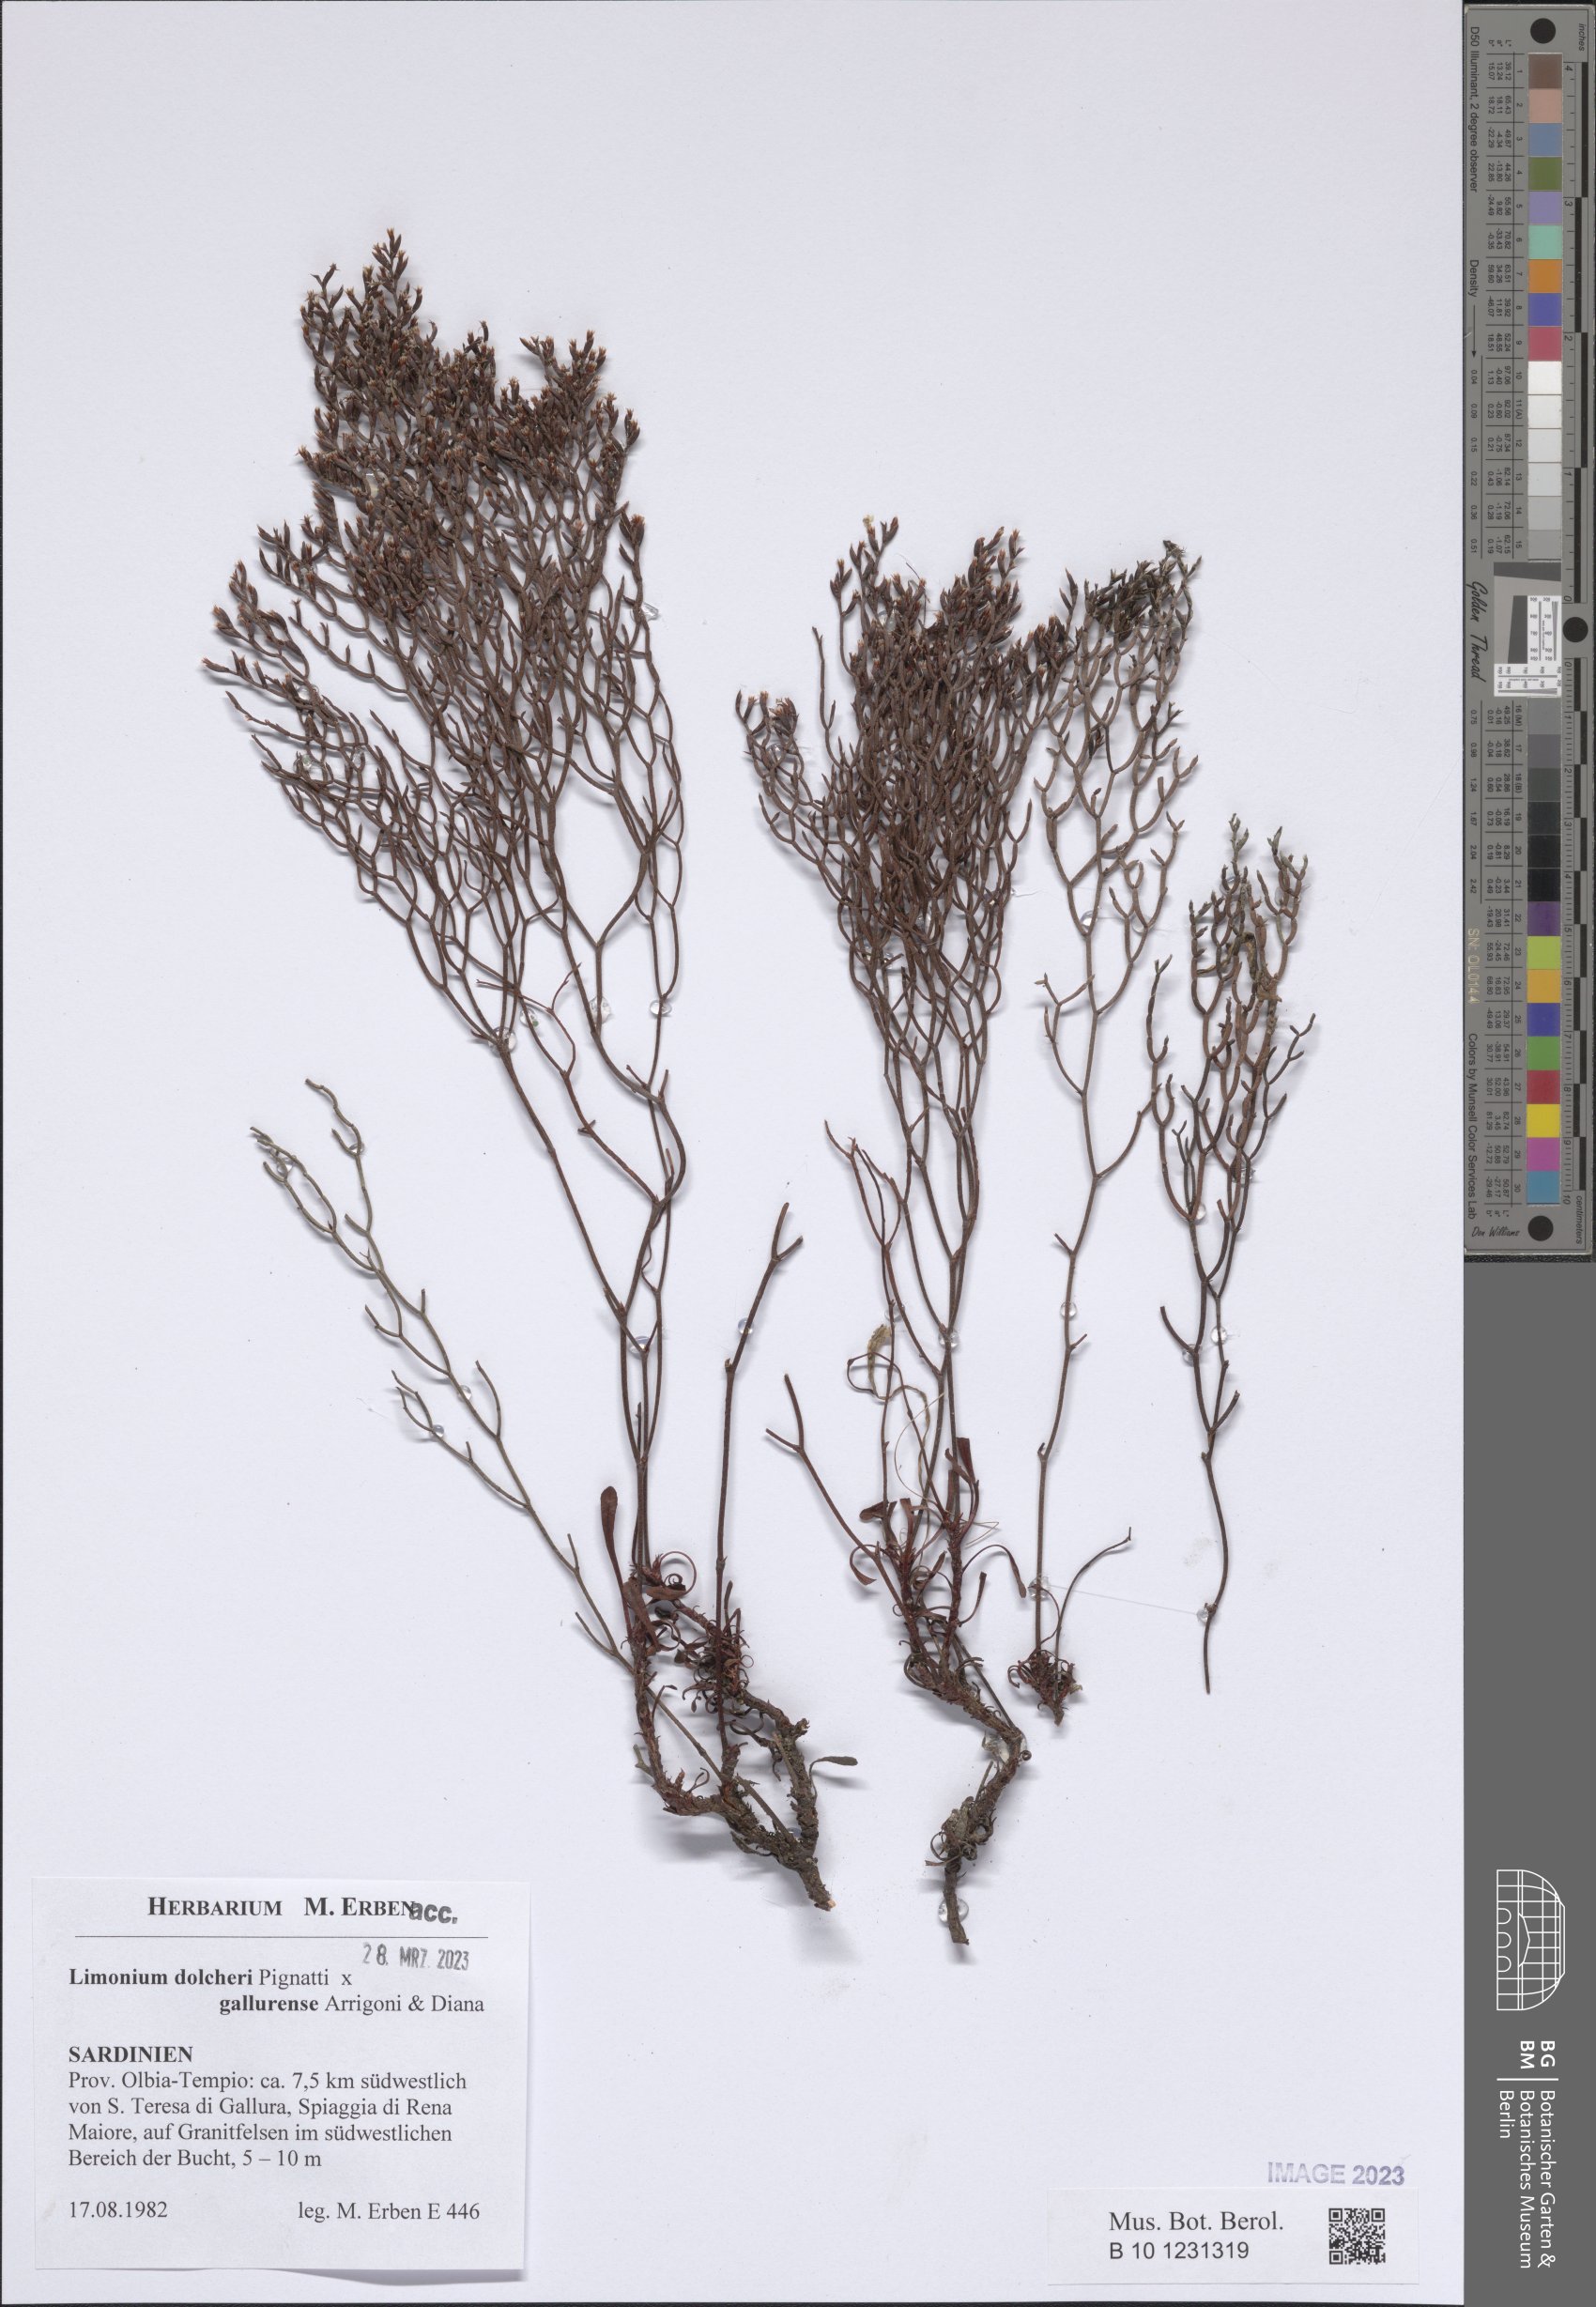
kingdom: Plantae
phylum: Tracheophyta
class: Magnoliopsida
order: Caryophyllales
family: Plumbaginaceae
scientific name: Plumbaginaceae
